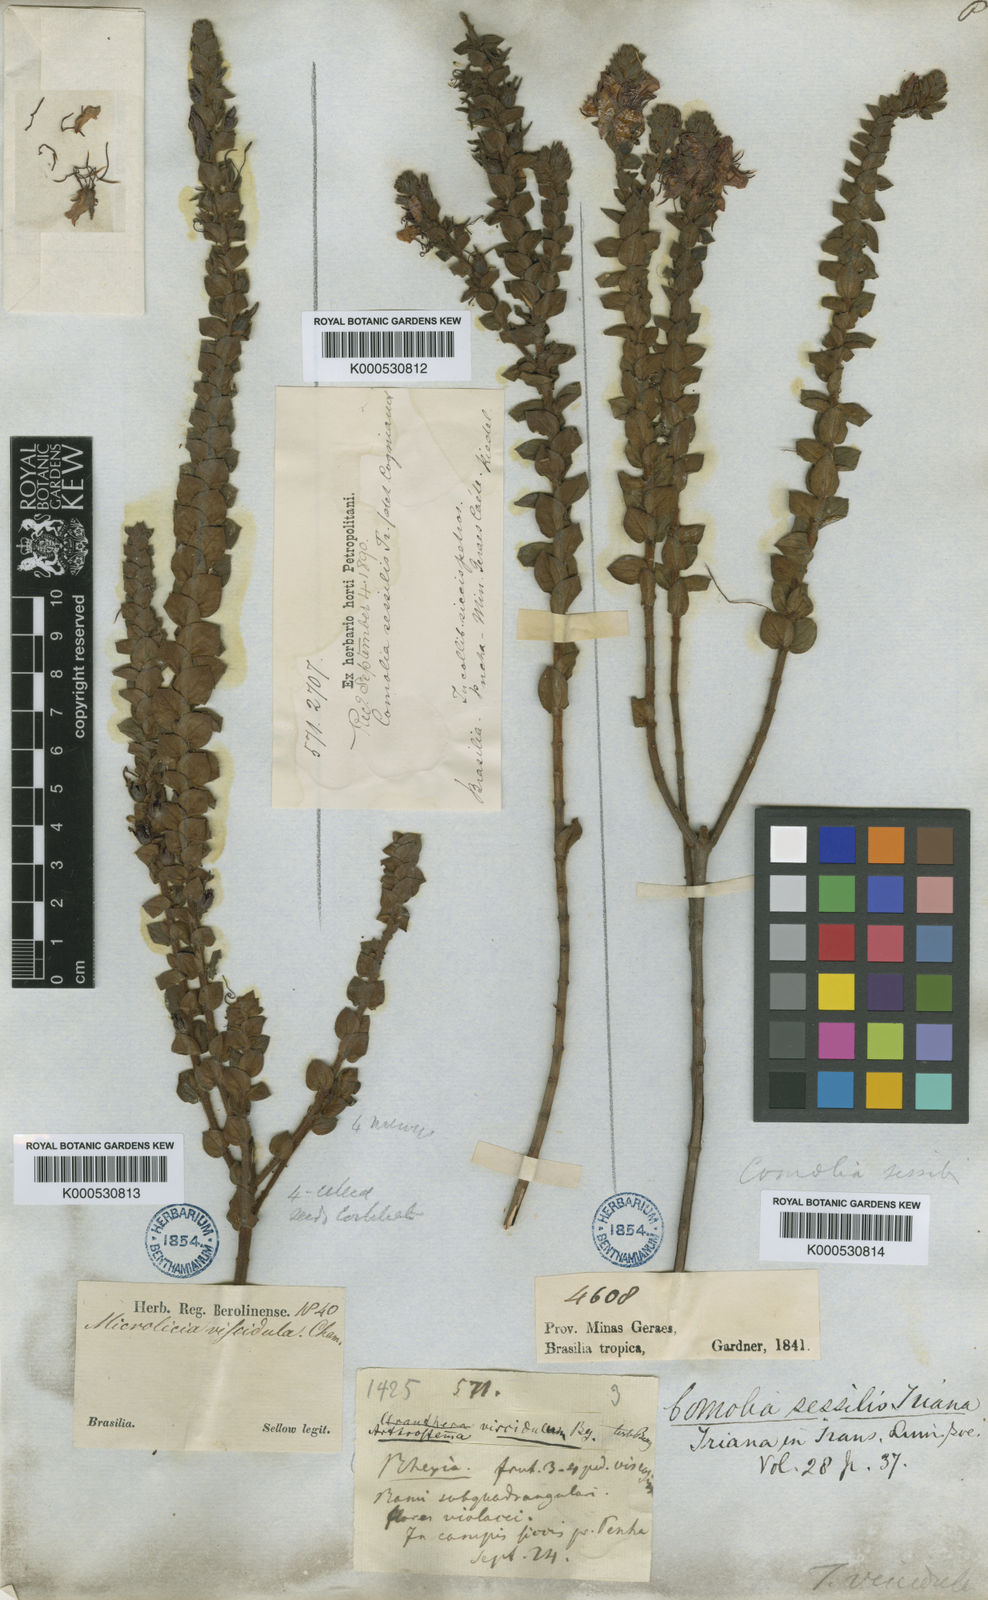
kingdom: Plantae
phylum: Tracheophyta
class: Magnoliopsida
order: Myrtales
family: Melastomataceae
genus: Fritzschia
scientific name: Fritzschia sessilis
